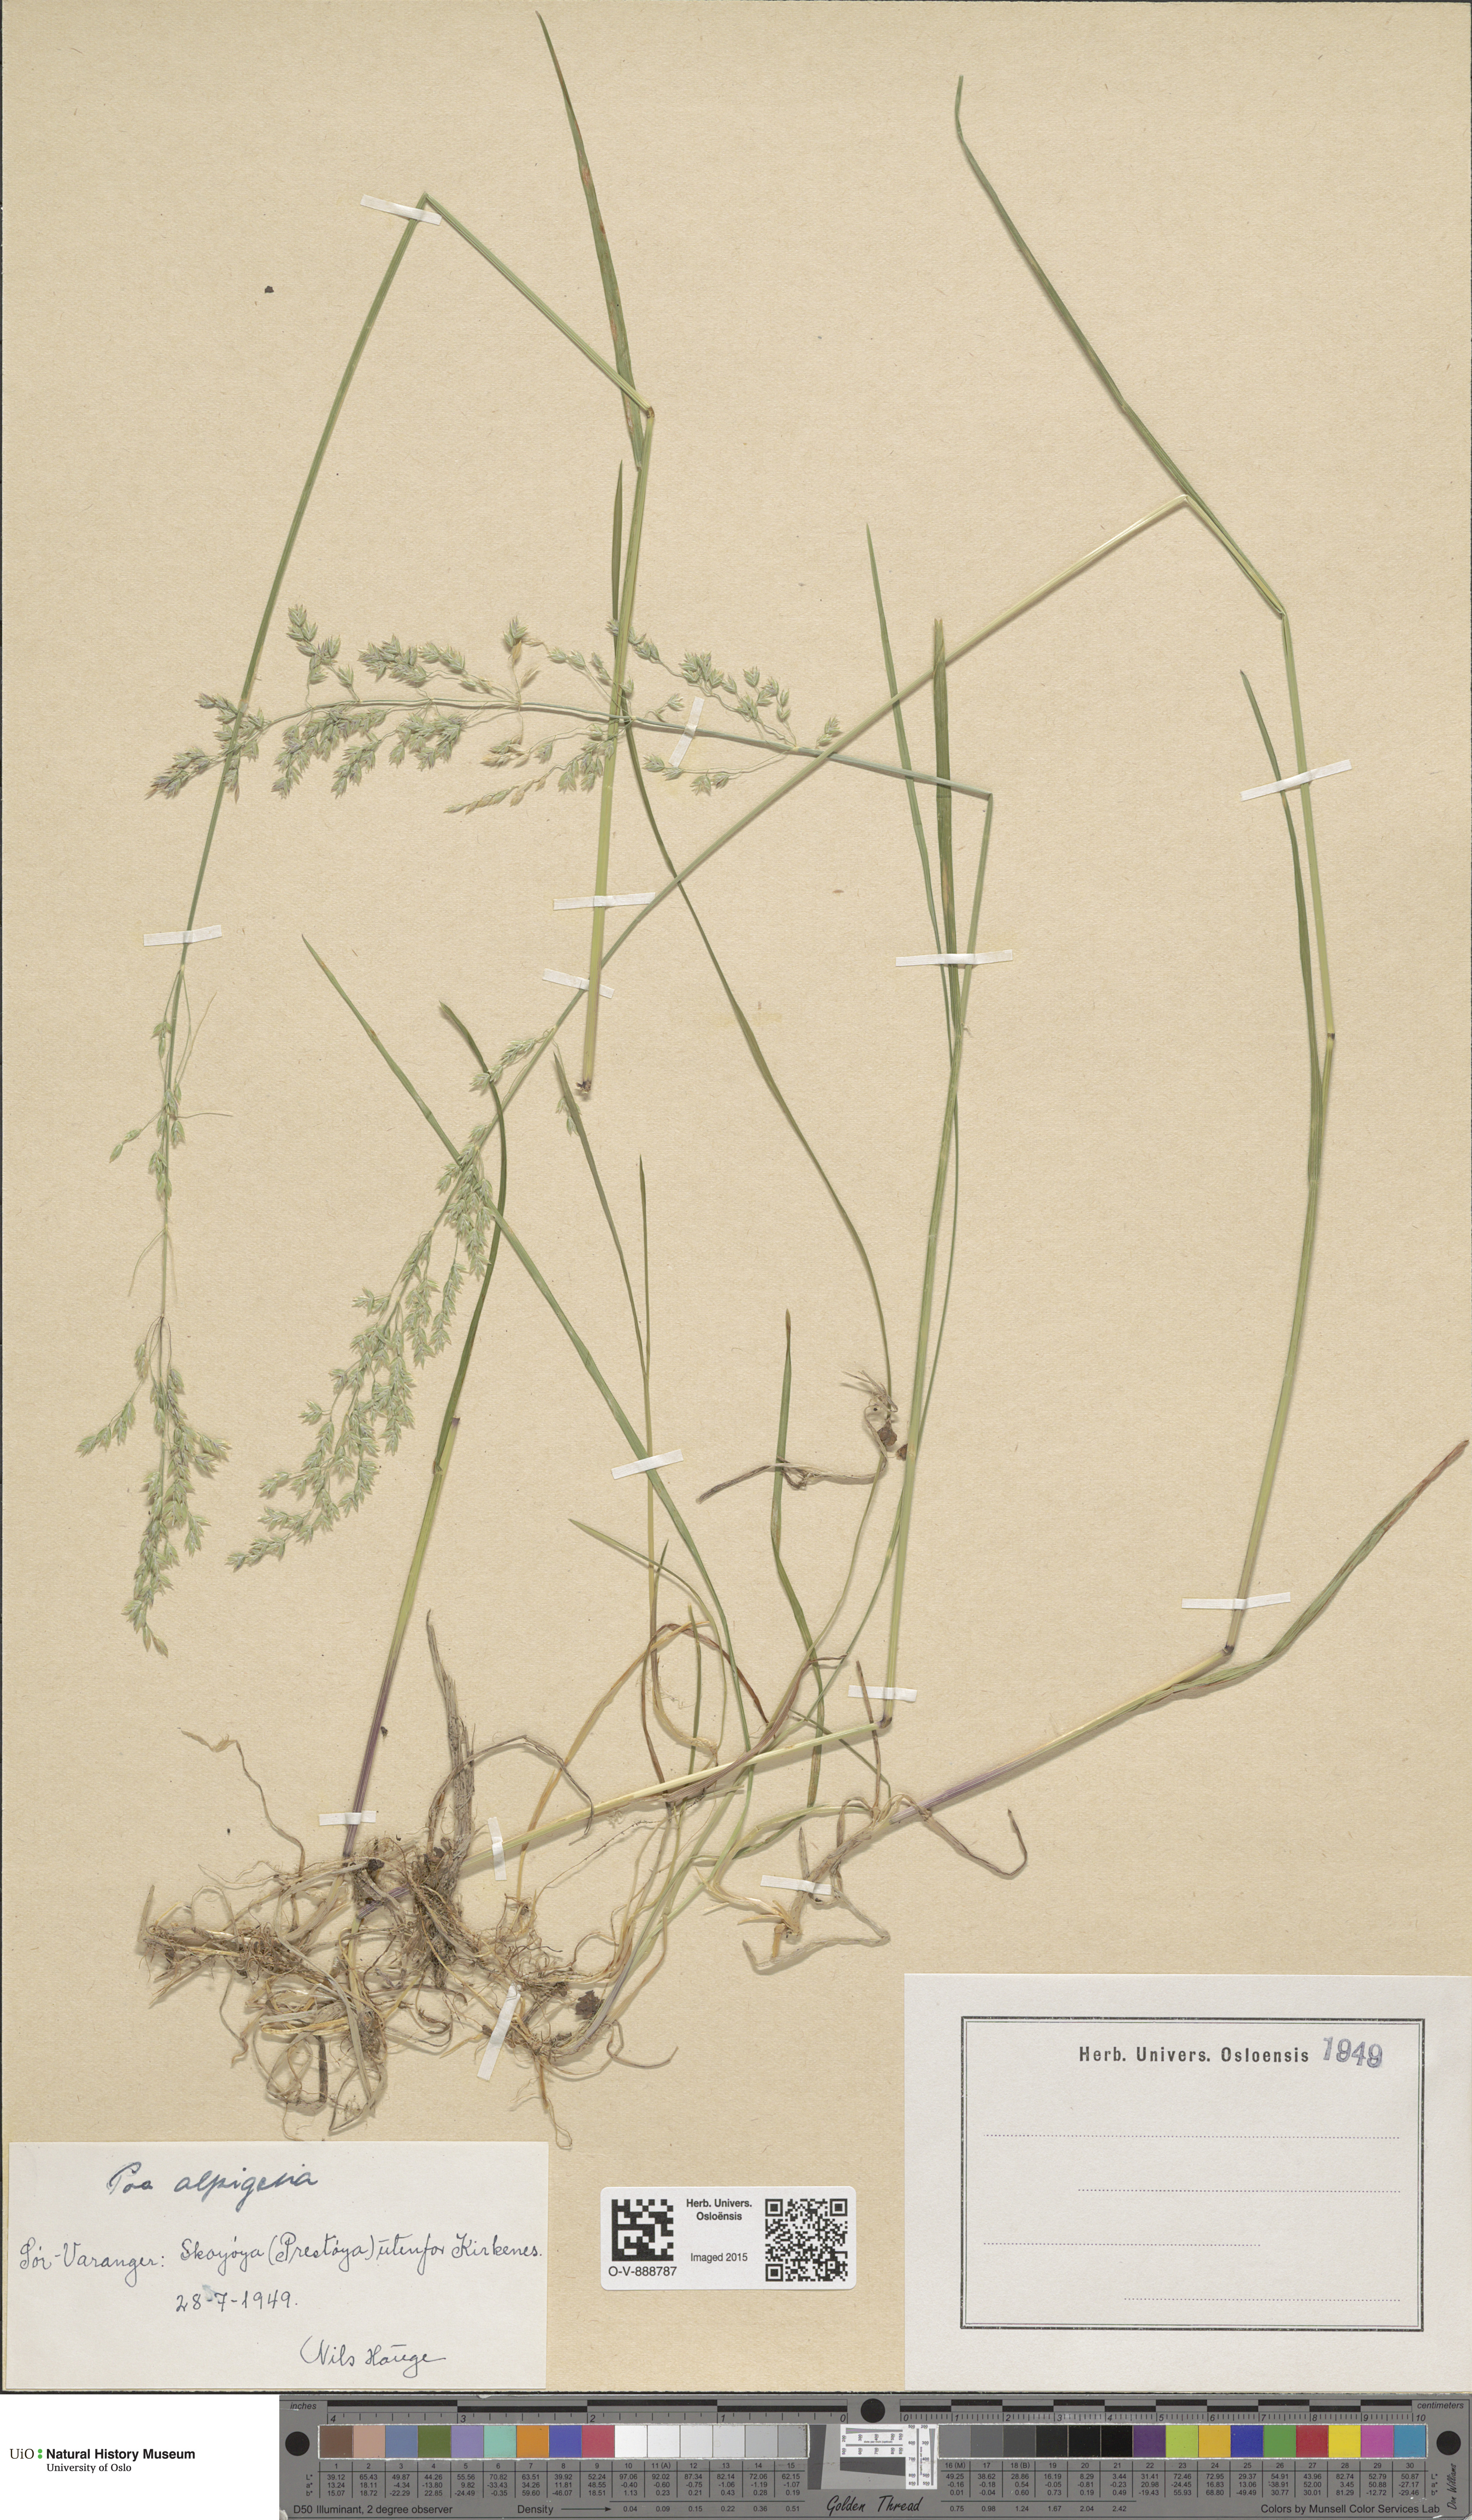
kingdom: Plantae
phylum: Tracheophyta
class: Liliopsida
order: Poales
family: Poaceae
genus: Poa
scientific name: Poa alpigena
